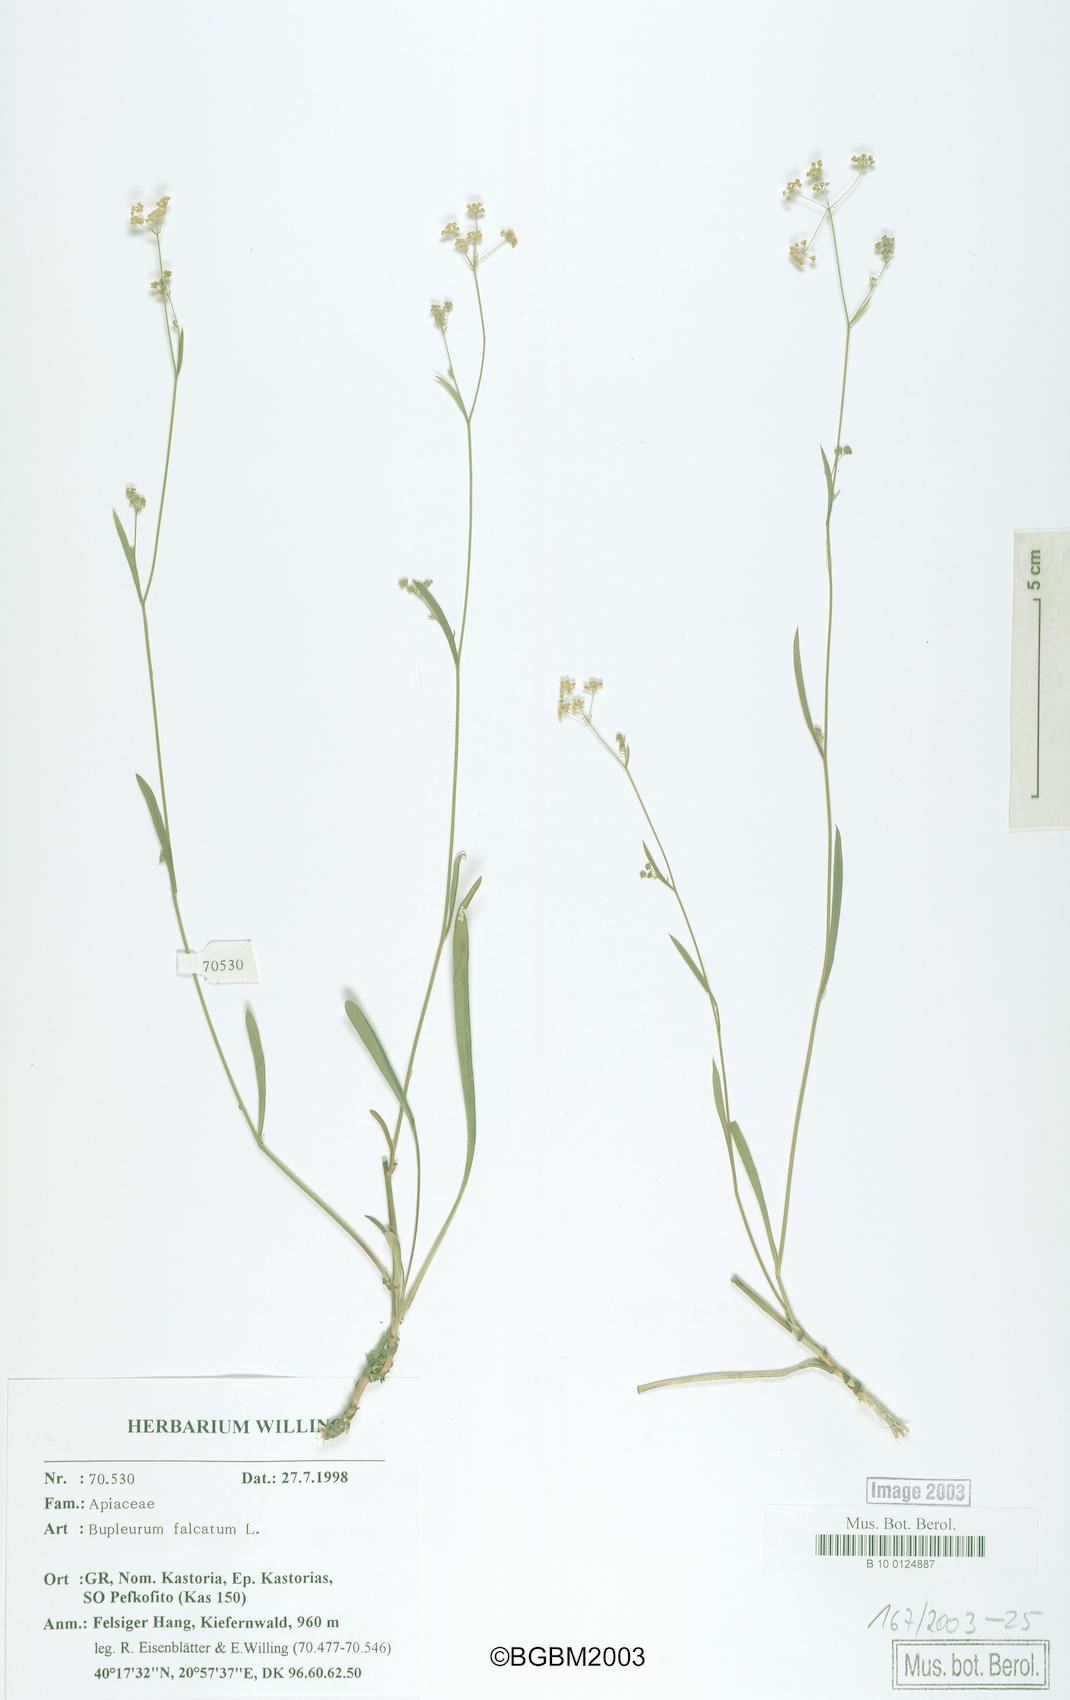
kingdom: Plantae
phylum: Tracheophyta
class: Magnoliopsida
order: Apiales
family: Apiaceae
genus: Bupleurum
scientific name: Bupleurum falcatum
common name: Sickle-leaved hare's-ear
